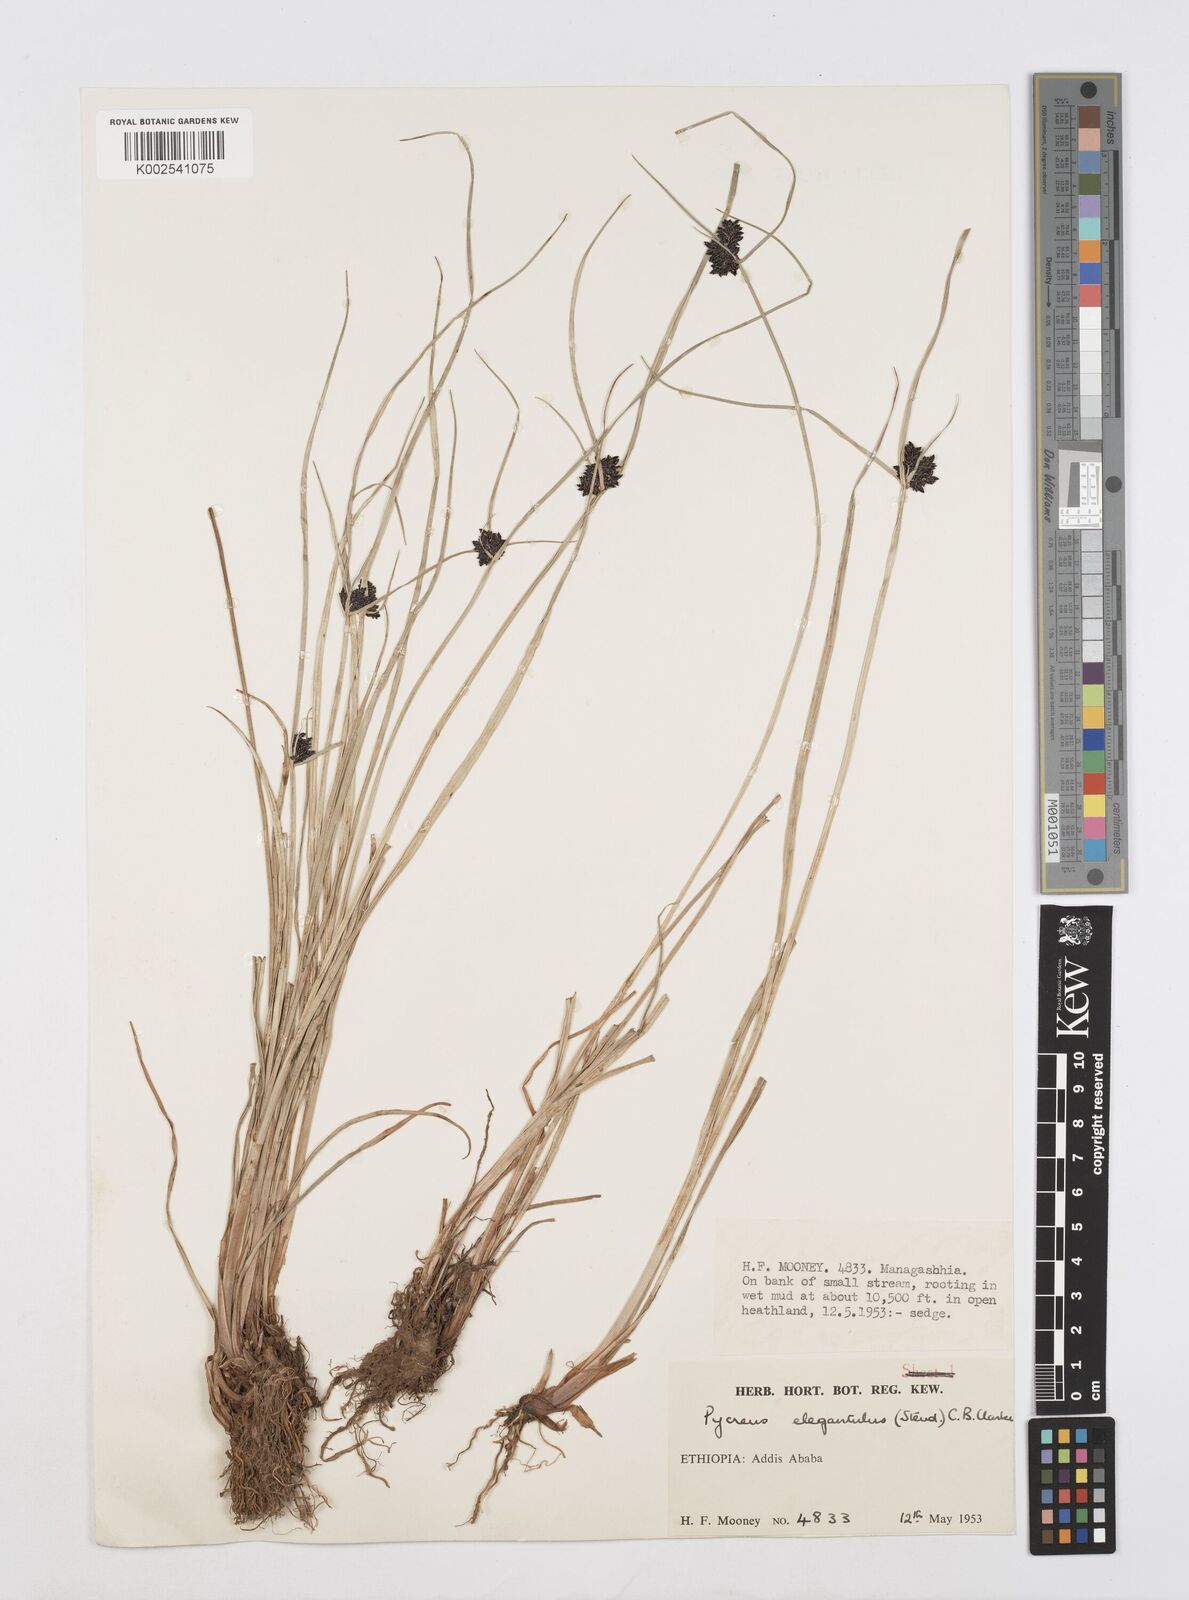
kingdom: Plantae
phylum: Tracheophyta
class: Liliopsida
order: Poales
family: Cyperaceae
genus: Cyperus
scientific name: Cyperus elegantulus
